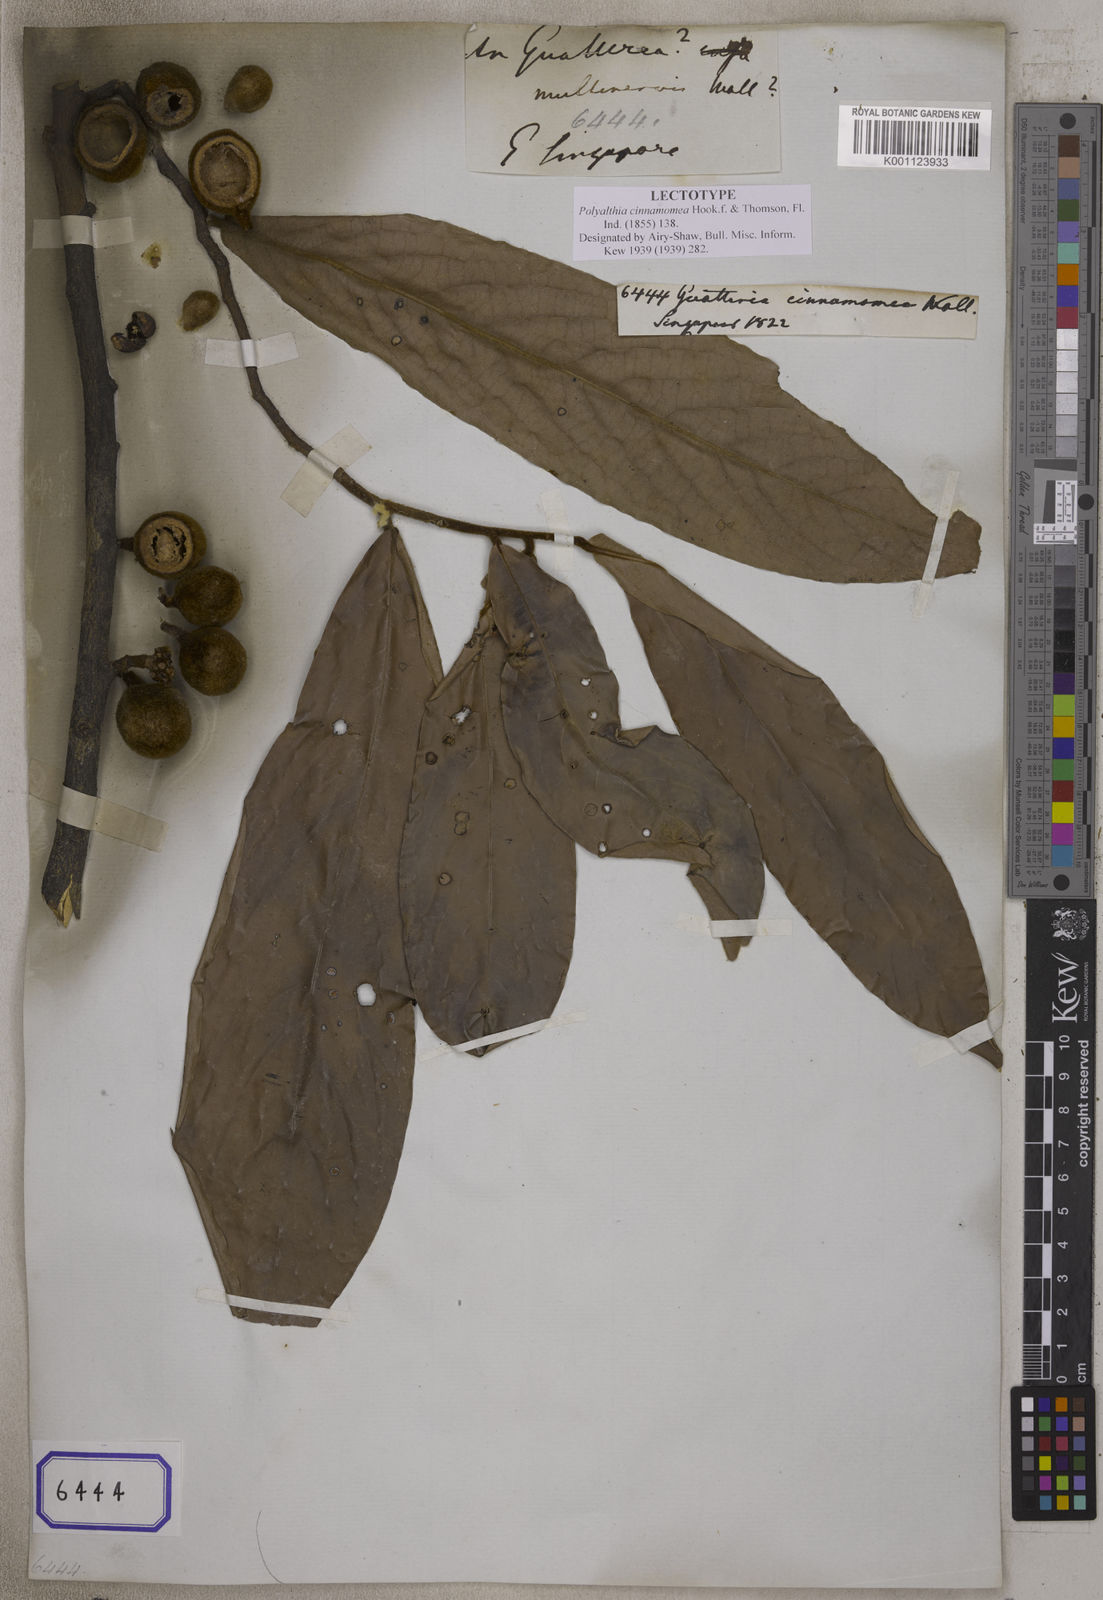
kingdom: Plantae
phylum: Tracheophyta
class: Magnoliopsida
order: Magnoliales
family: Annonaceae
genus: Polyalthia
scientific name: Polyalthia cinnamomea
